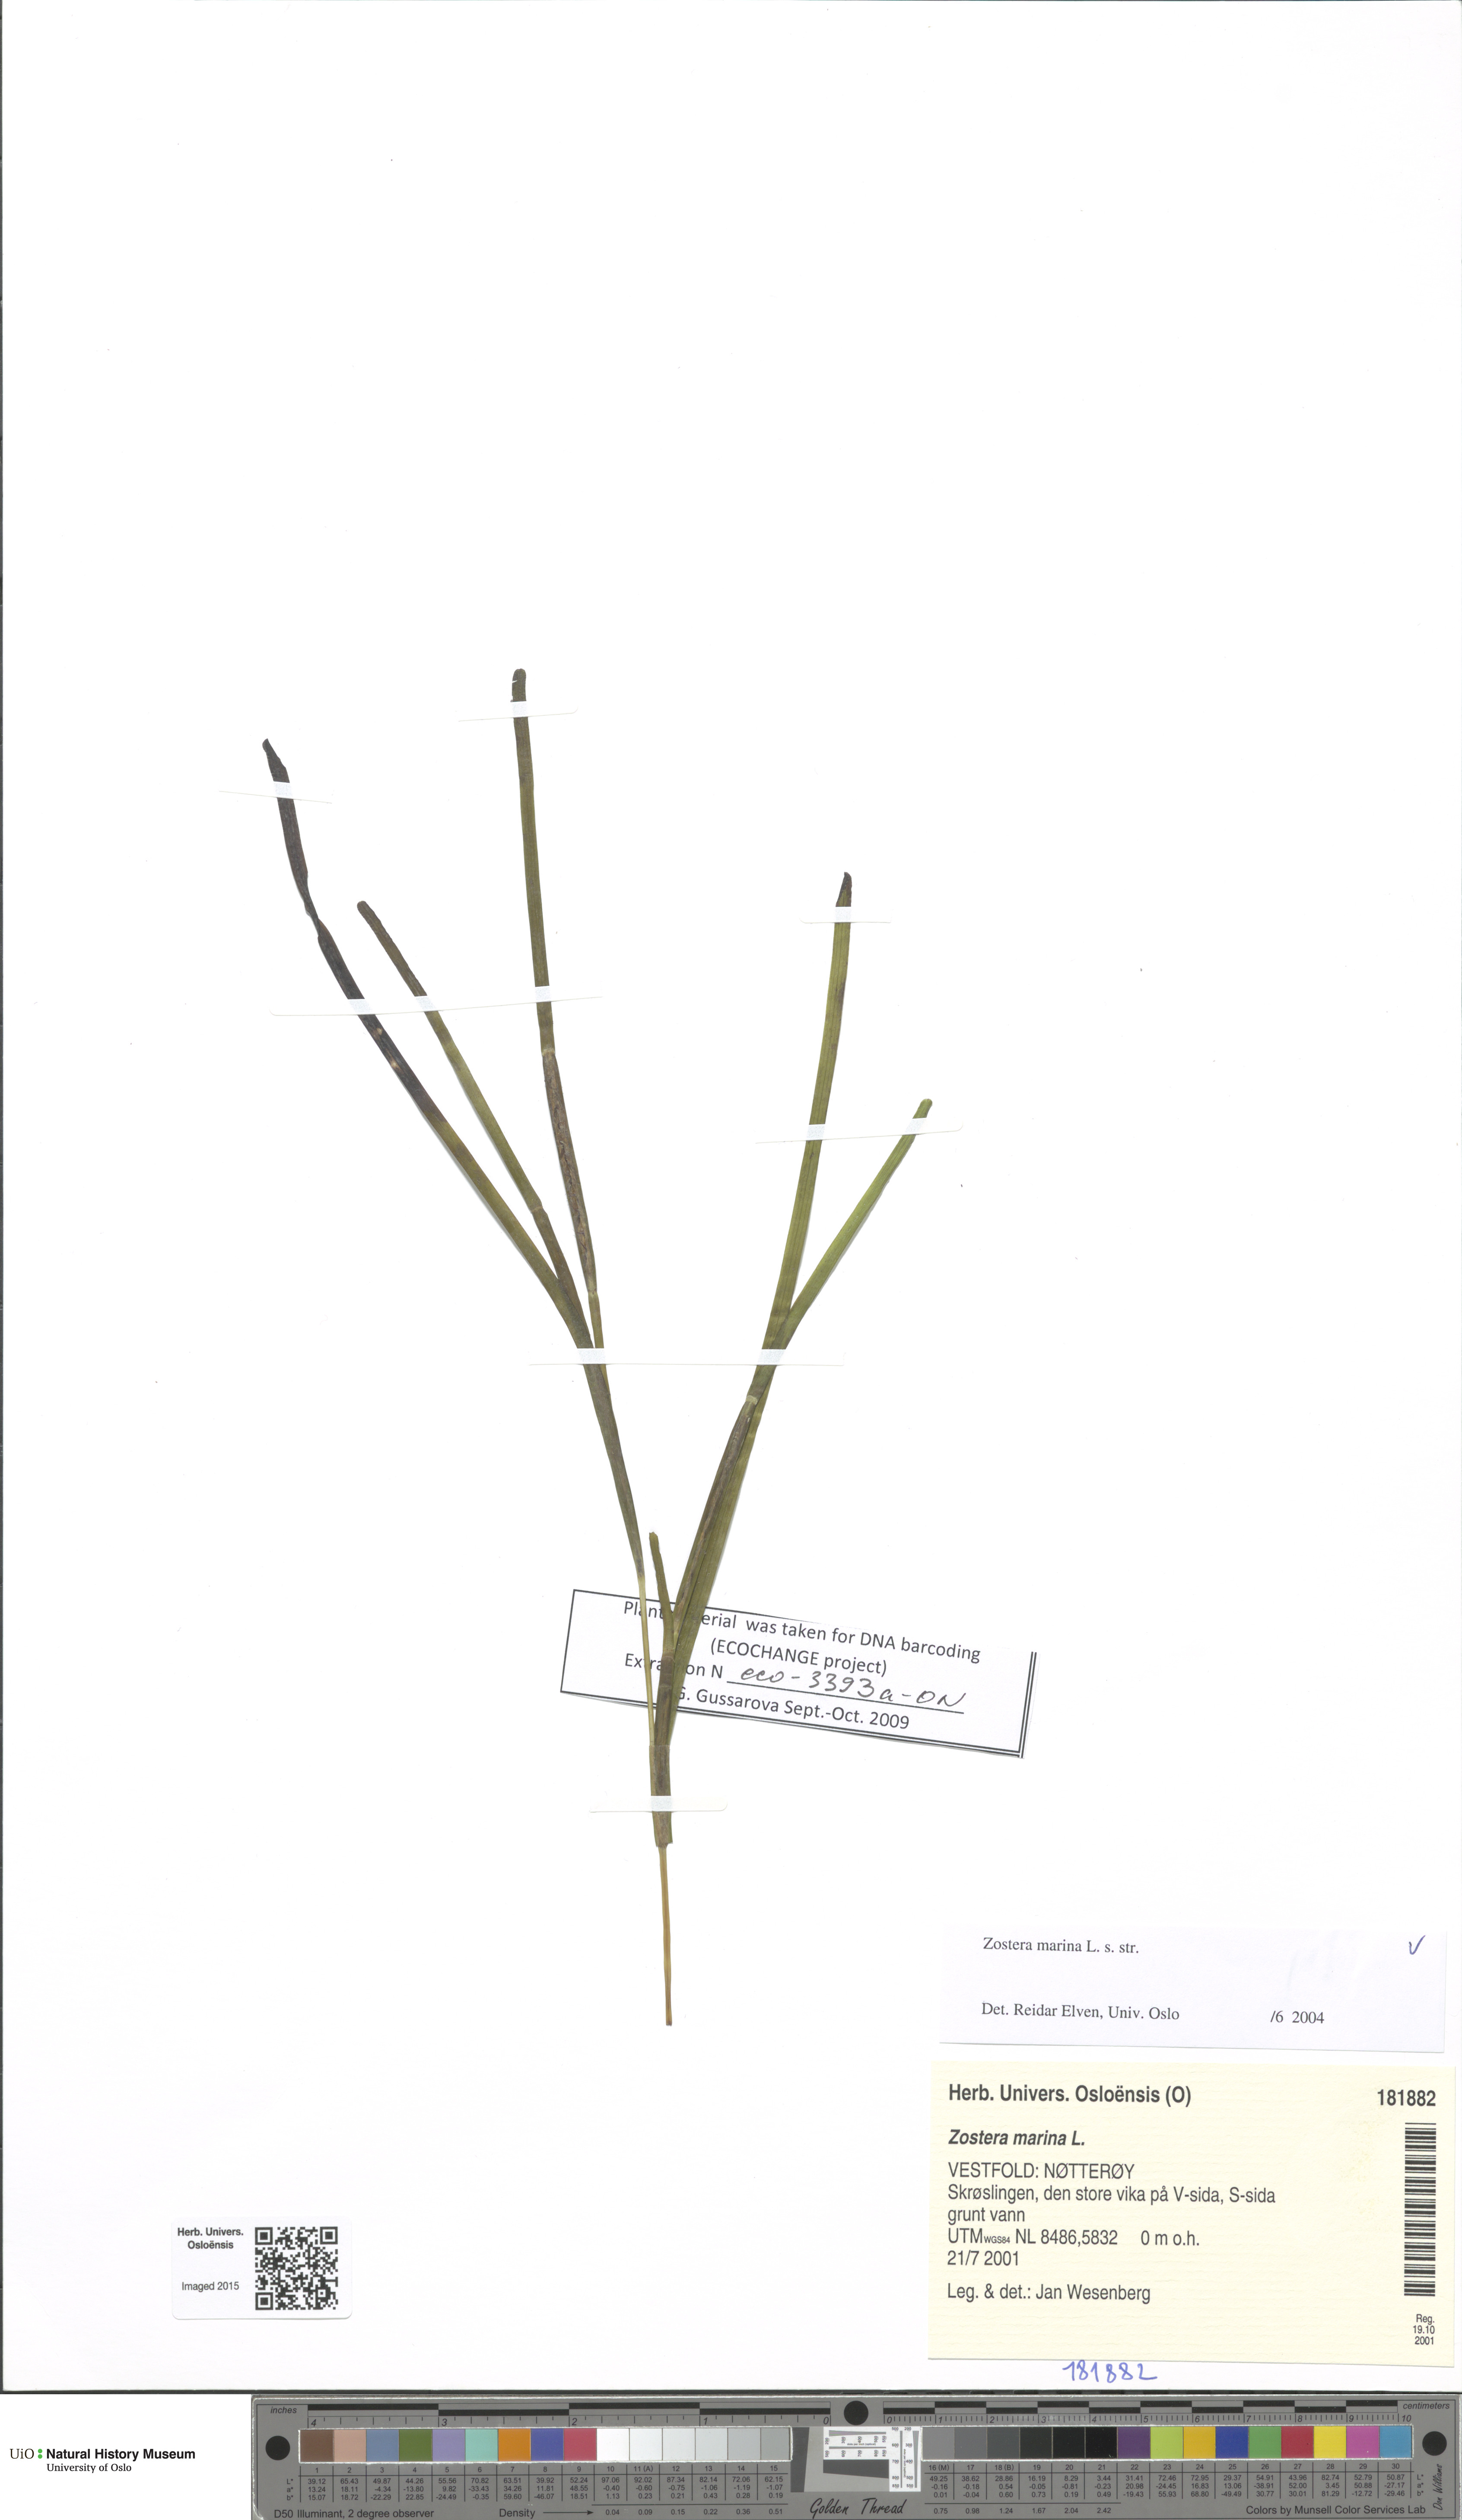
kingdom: Plantae
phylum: Tracheophyta
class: Liliopsida
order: Alismatales
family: Zosteraceae
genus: Zostera
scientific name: Zostera marina
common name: Eelgrass
